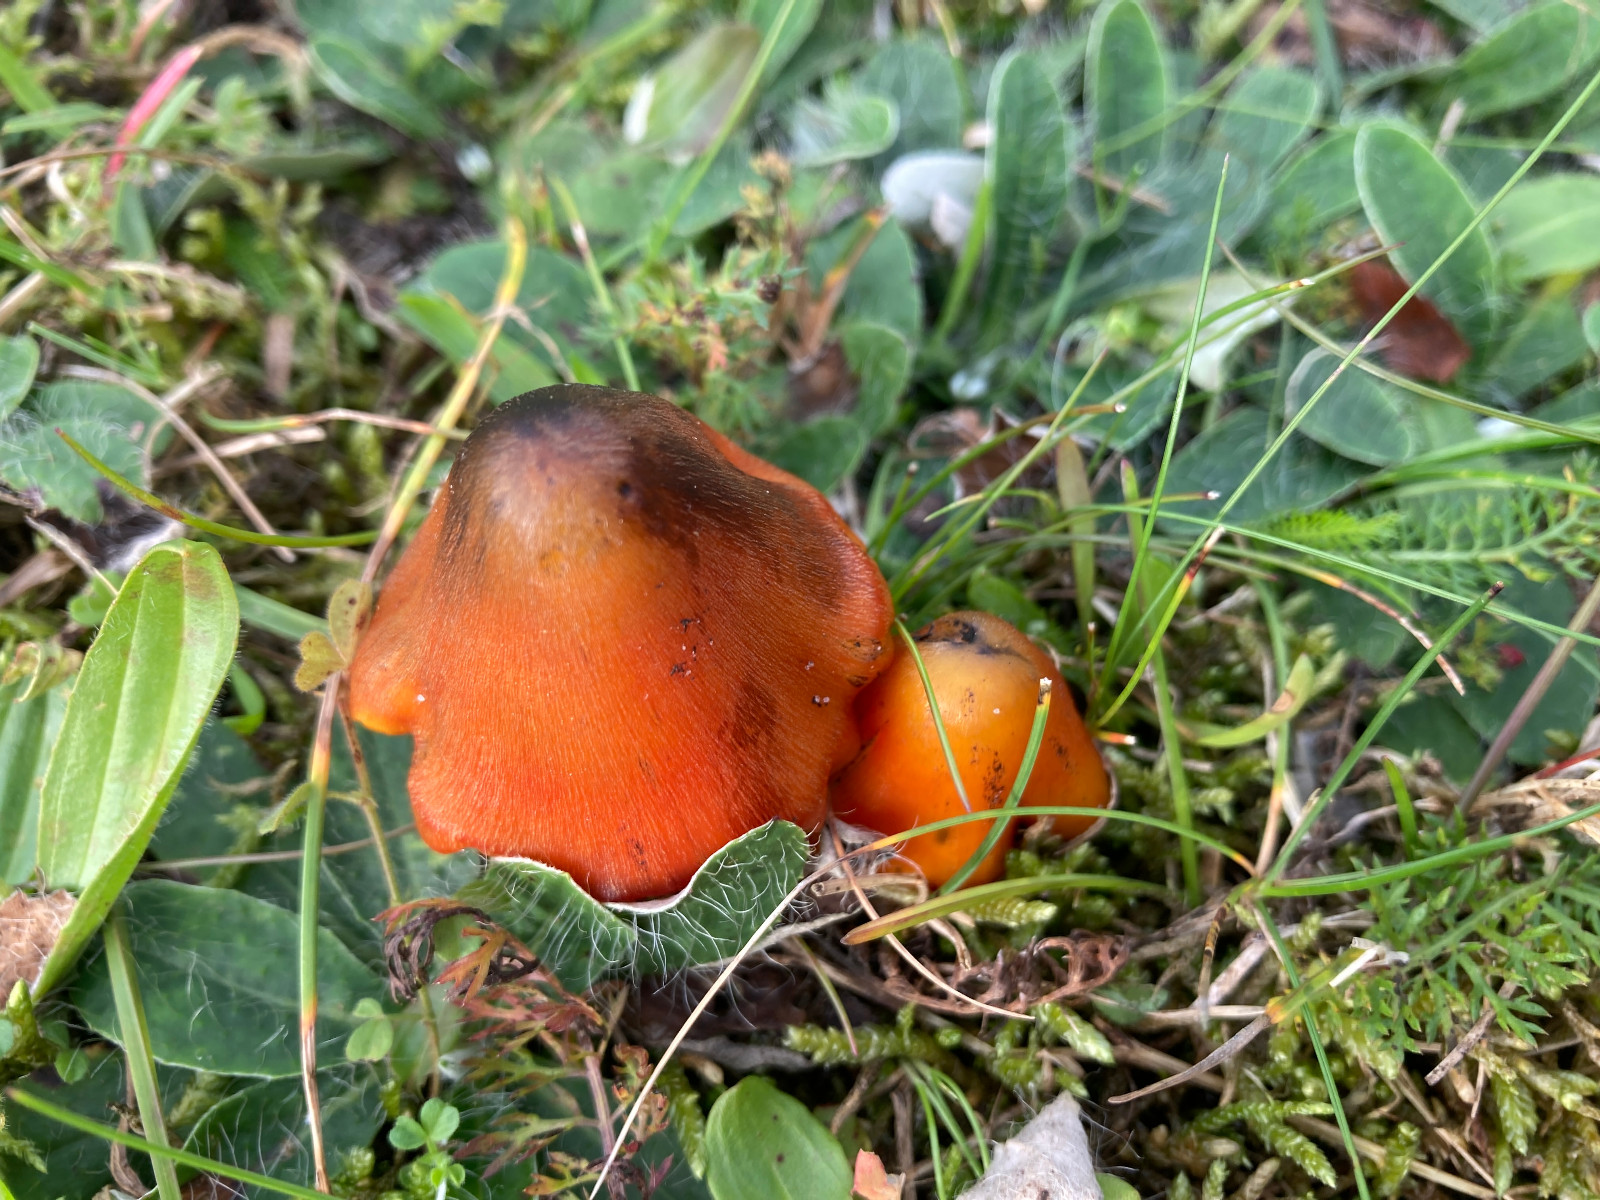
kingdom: Fungi
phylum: Basidiomycota
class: Agaricomycetes
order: Agaricales
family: Hygrophoraceae
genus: Hygrocybe
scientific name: Hygrocybe conica
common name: kegle-vokshat
